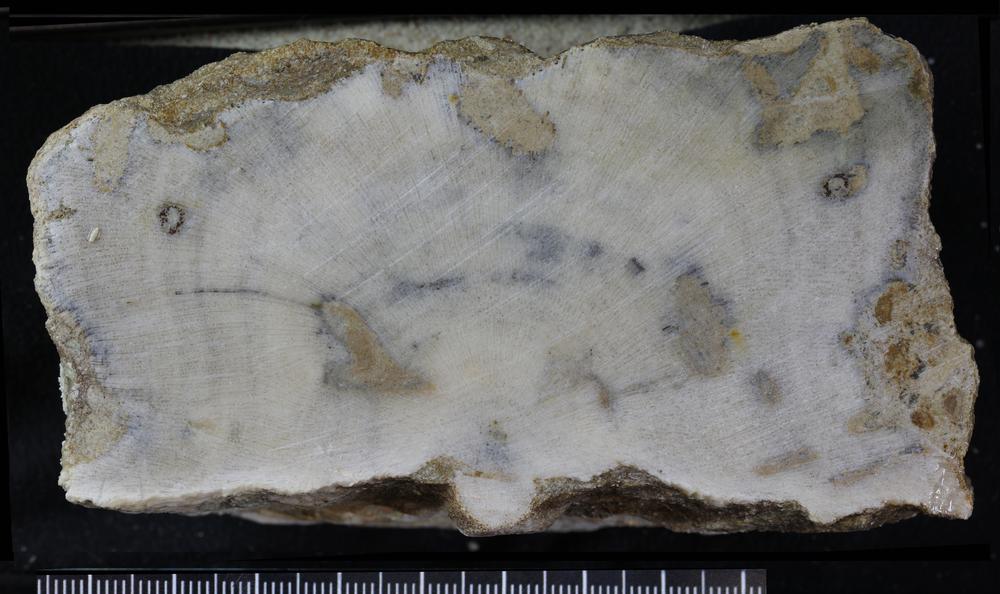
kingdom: Animalia
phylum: Bryozoa
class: Stenolaemata
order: Trepostomatida
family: Diplotrypidae
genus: Diplotrypa
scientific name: Diplotrypa petropolitana
